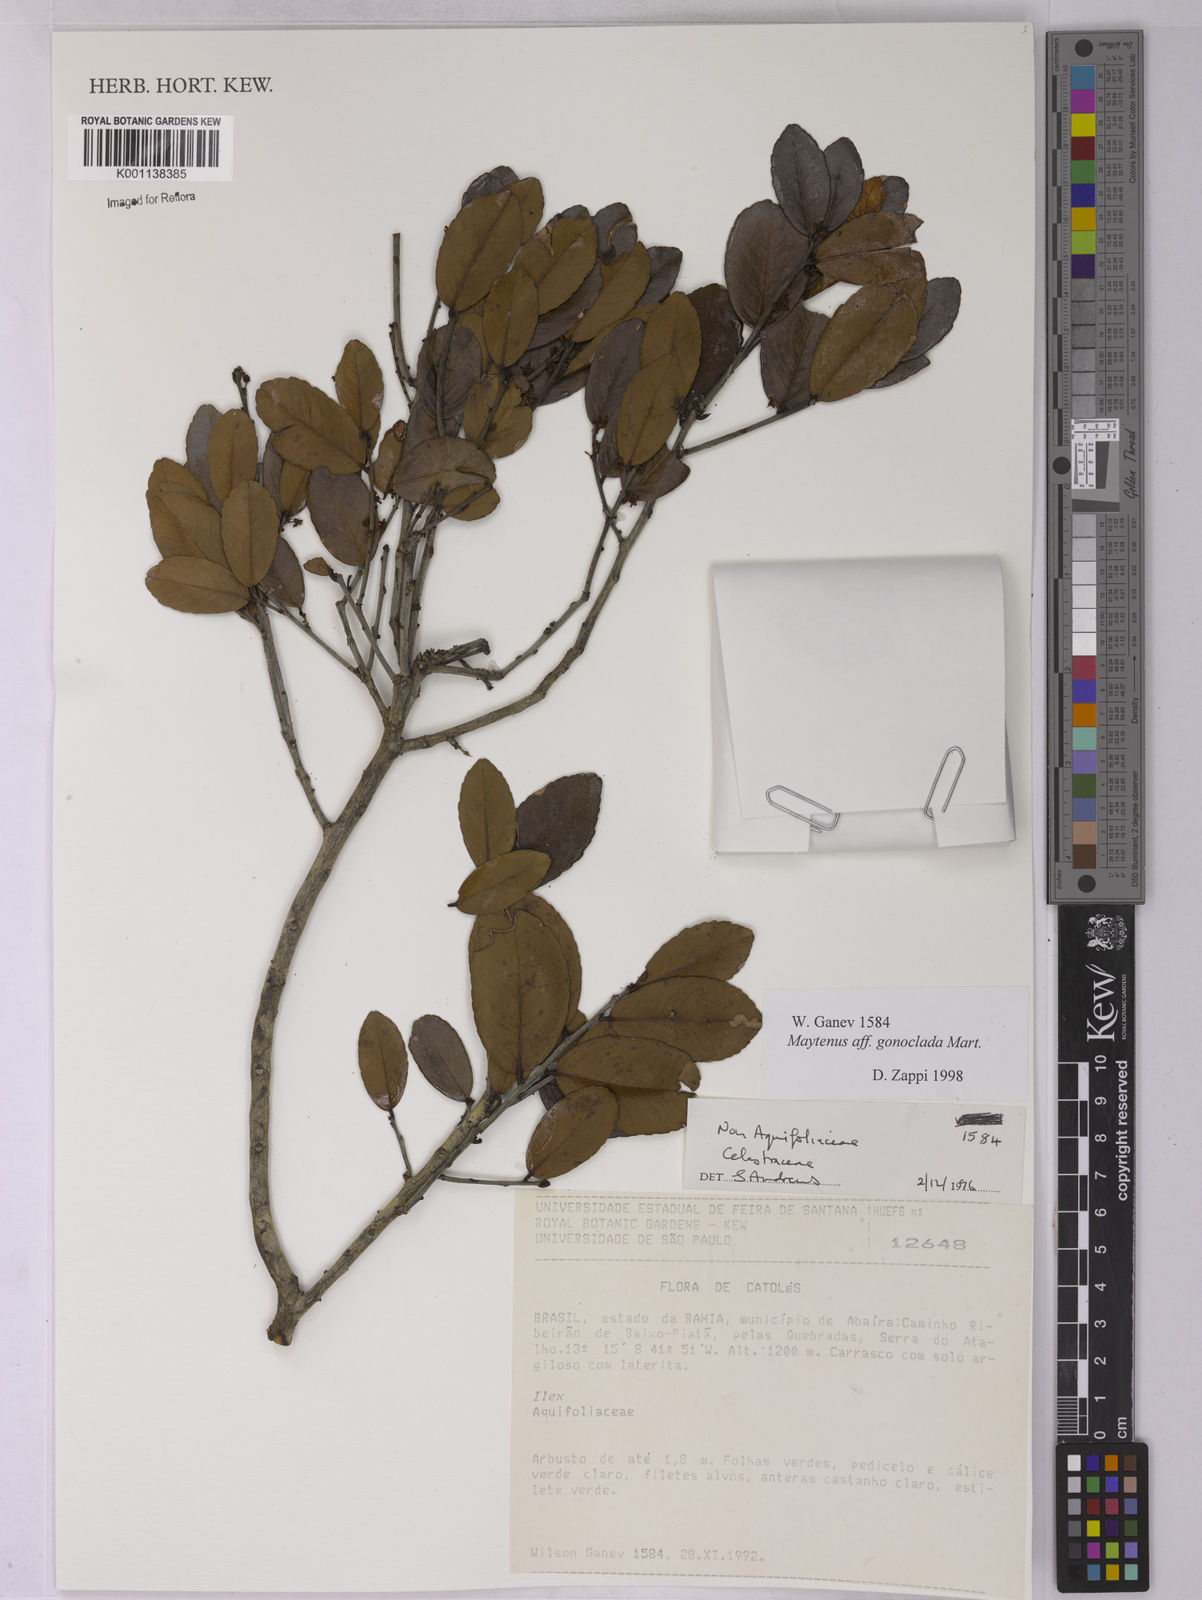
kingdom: Plantae
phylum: Tracheophyta
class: Magnoliopsida
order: Celastrales
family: Celastraceae
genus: Monteverdia
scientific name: Monteverdia gonoclada
